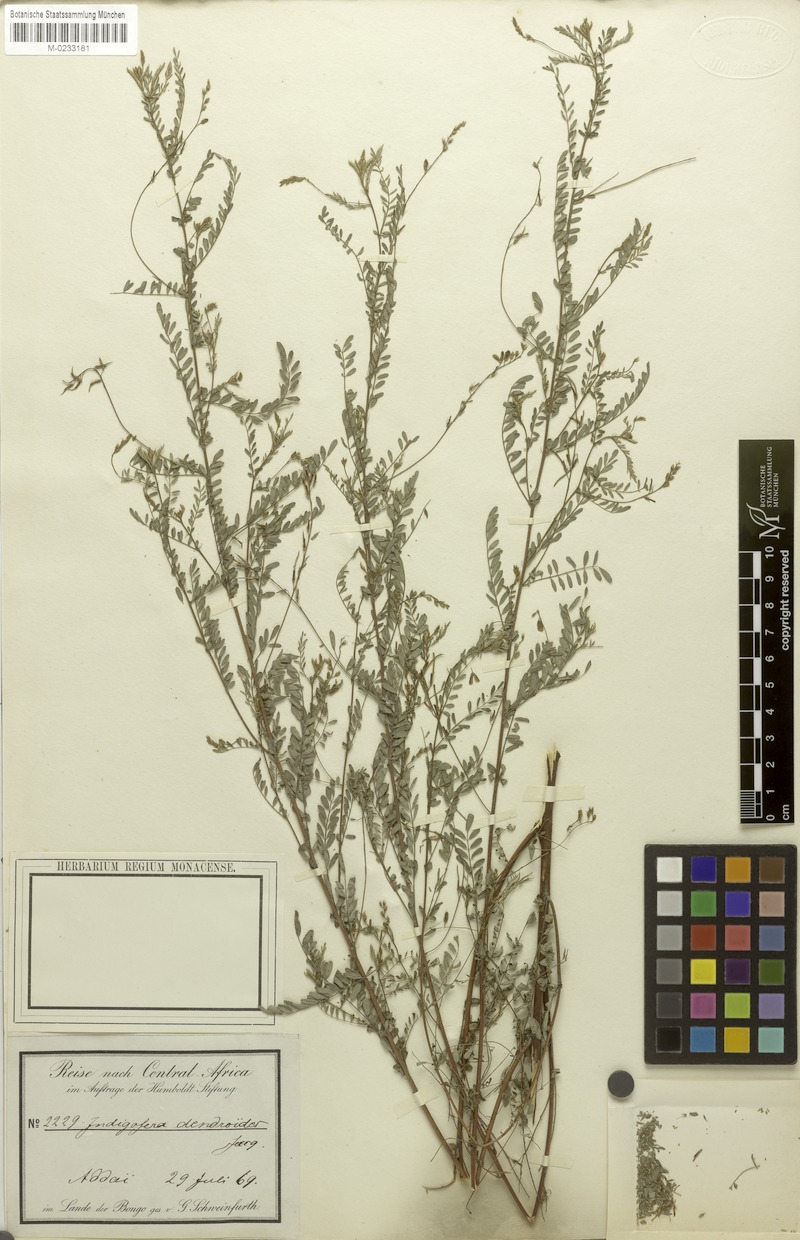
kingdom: Plantae
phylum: Tracheophyta
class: Magnoliopsida
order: Fabales
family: Fabaceae
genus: Indigofera
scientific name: Indigofera dendroides
